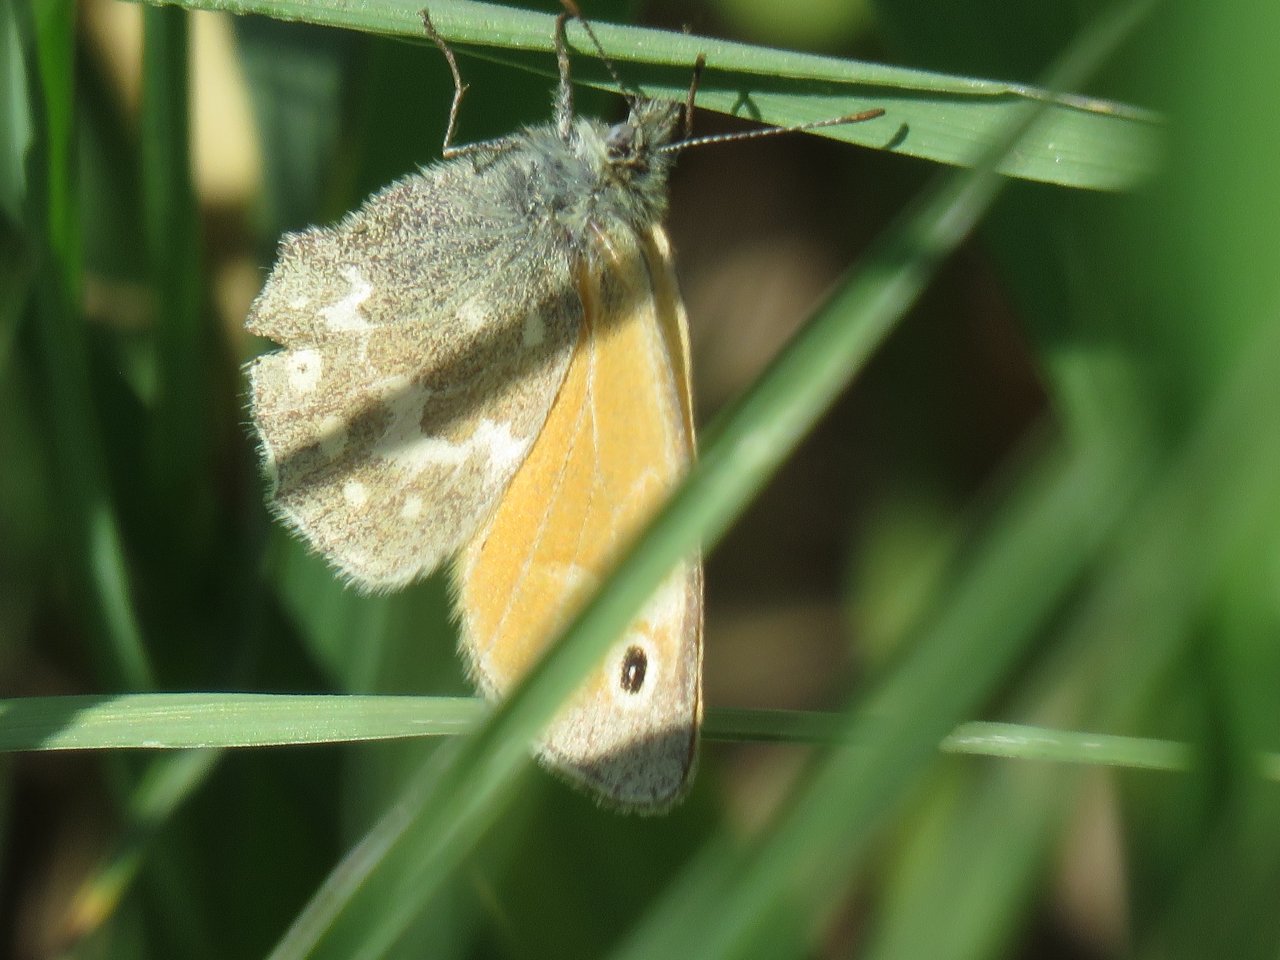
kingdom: Animalia
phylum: Arthropoda
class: Insecta
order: Lepidoptera
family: Nymphalidae
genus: Coenonympha
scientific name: Coenonympha tullia
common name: Large Heath
